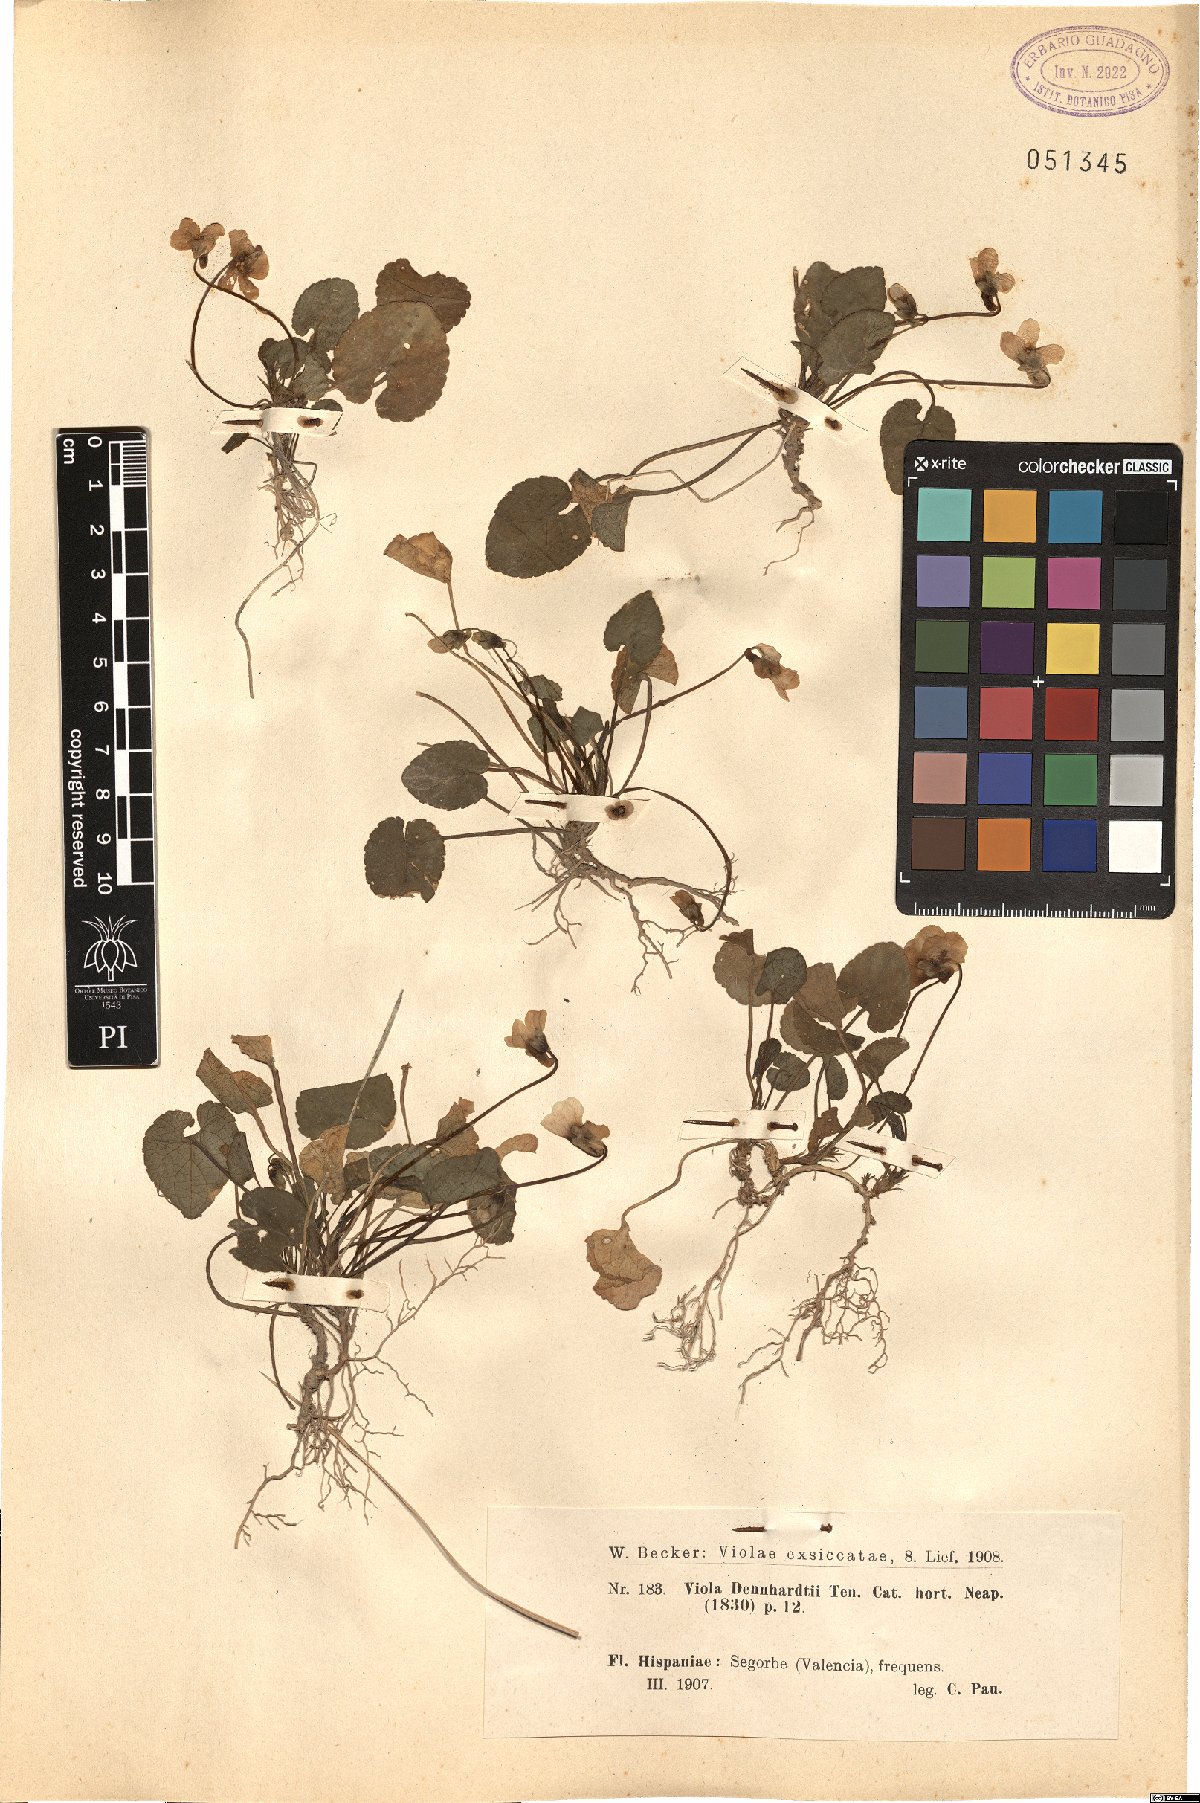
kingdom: Plantae
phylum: Tracheophyta
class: Magnoliopsida
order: Malpighiales
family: Violaceae
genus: Viola
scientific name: Viola alba
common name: White violet
